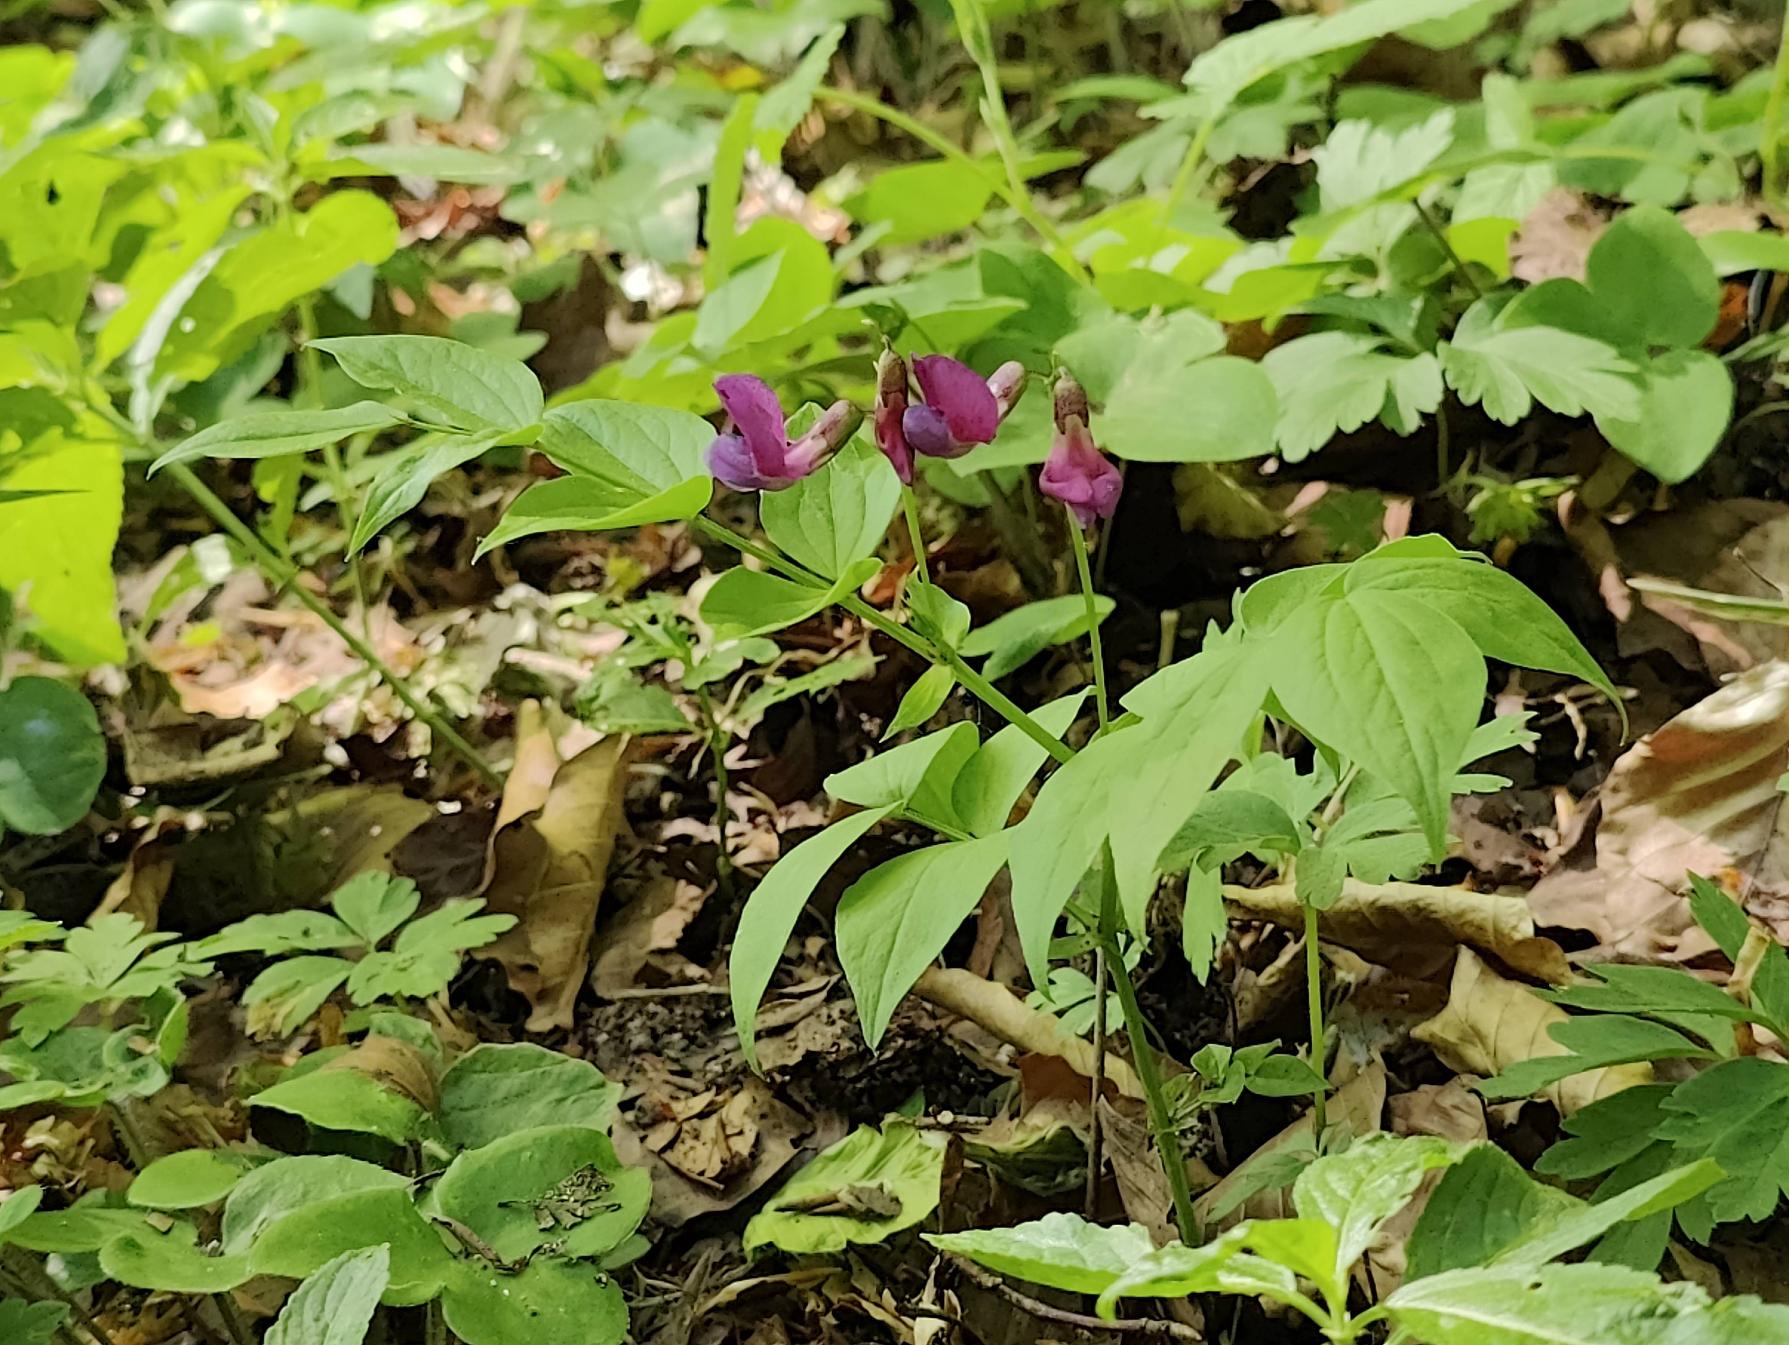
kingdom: Plantae
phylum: Tracheophyta
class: Magnoliopsida
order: Fabales
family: Fabaceae
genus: Lathyrus
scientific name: Lathyrus vernus
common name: Vår-fladbælg
